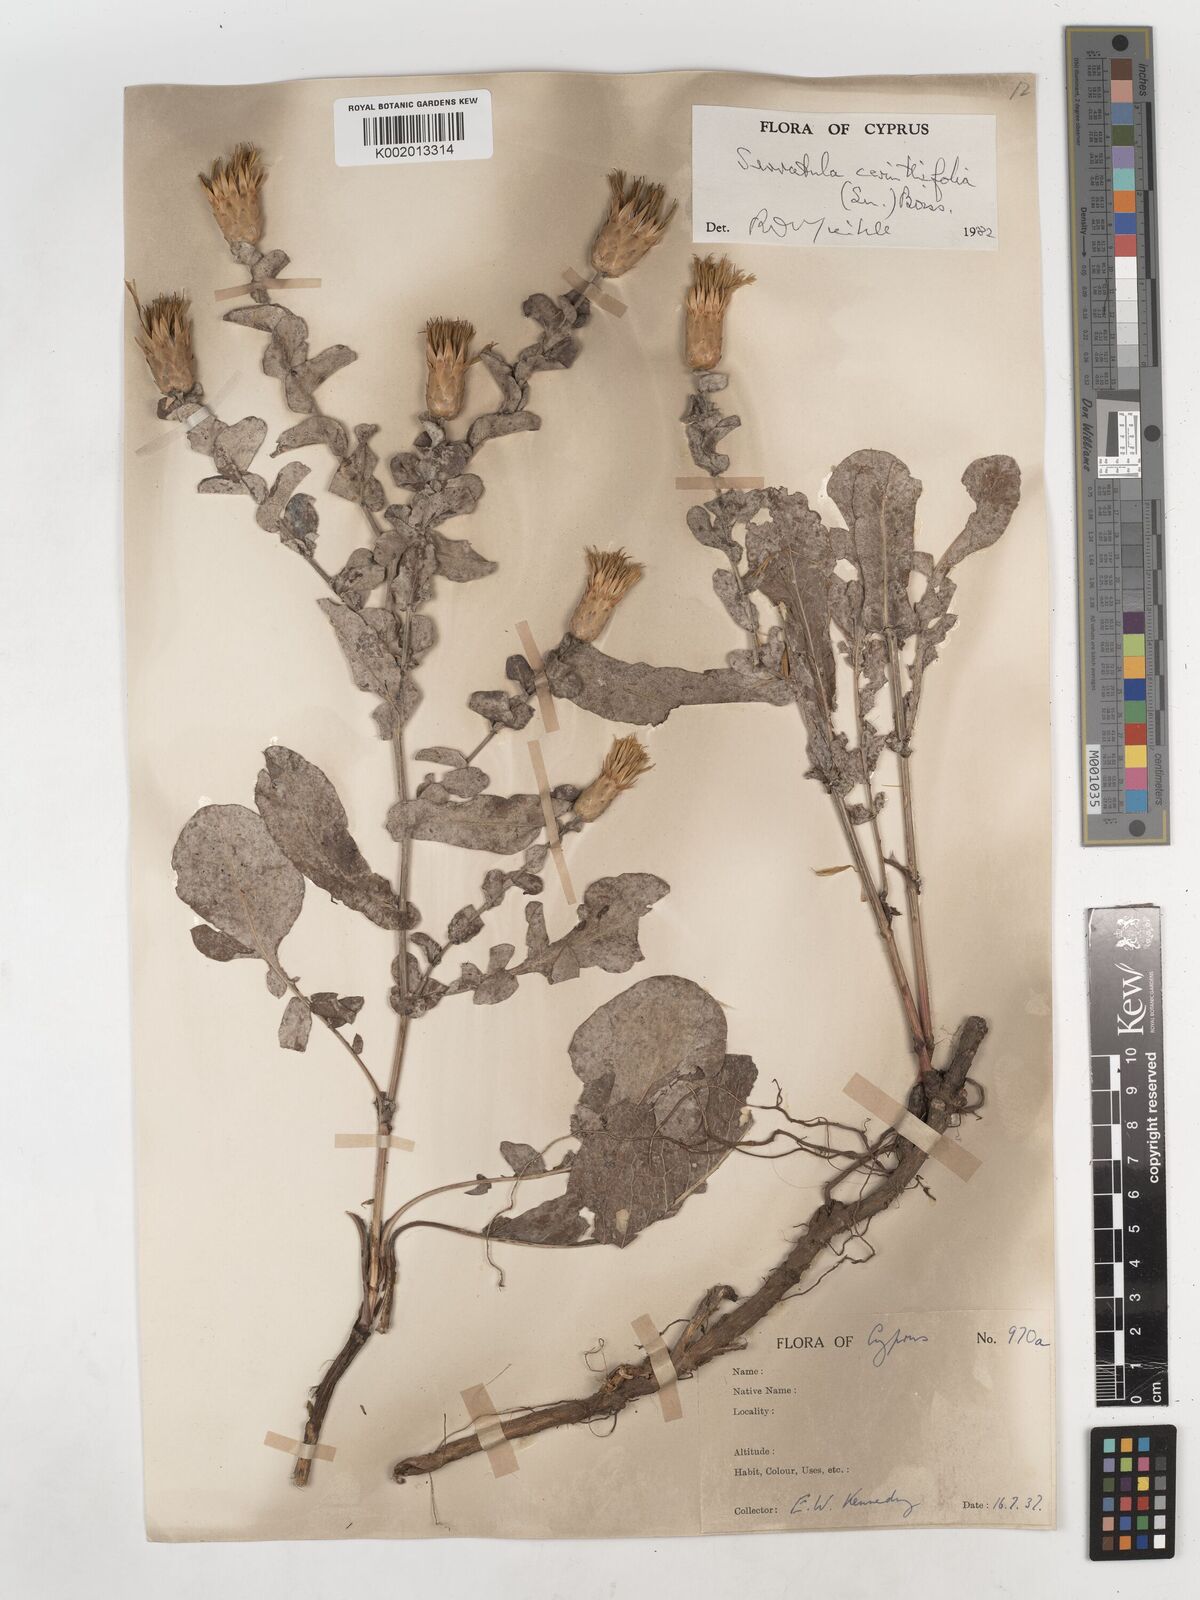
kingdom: Plantae
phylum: Tracheophyta
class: Magnoliopsida
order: Asterales
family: Asteraceae
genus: Klasea
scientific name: Klasea cerinthifolia
